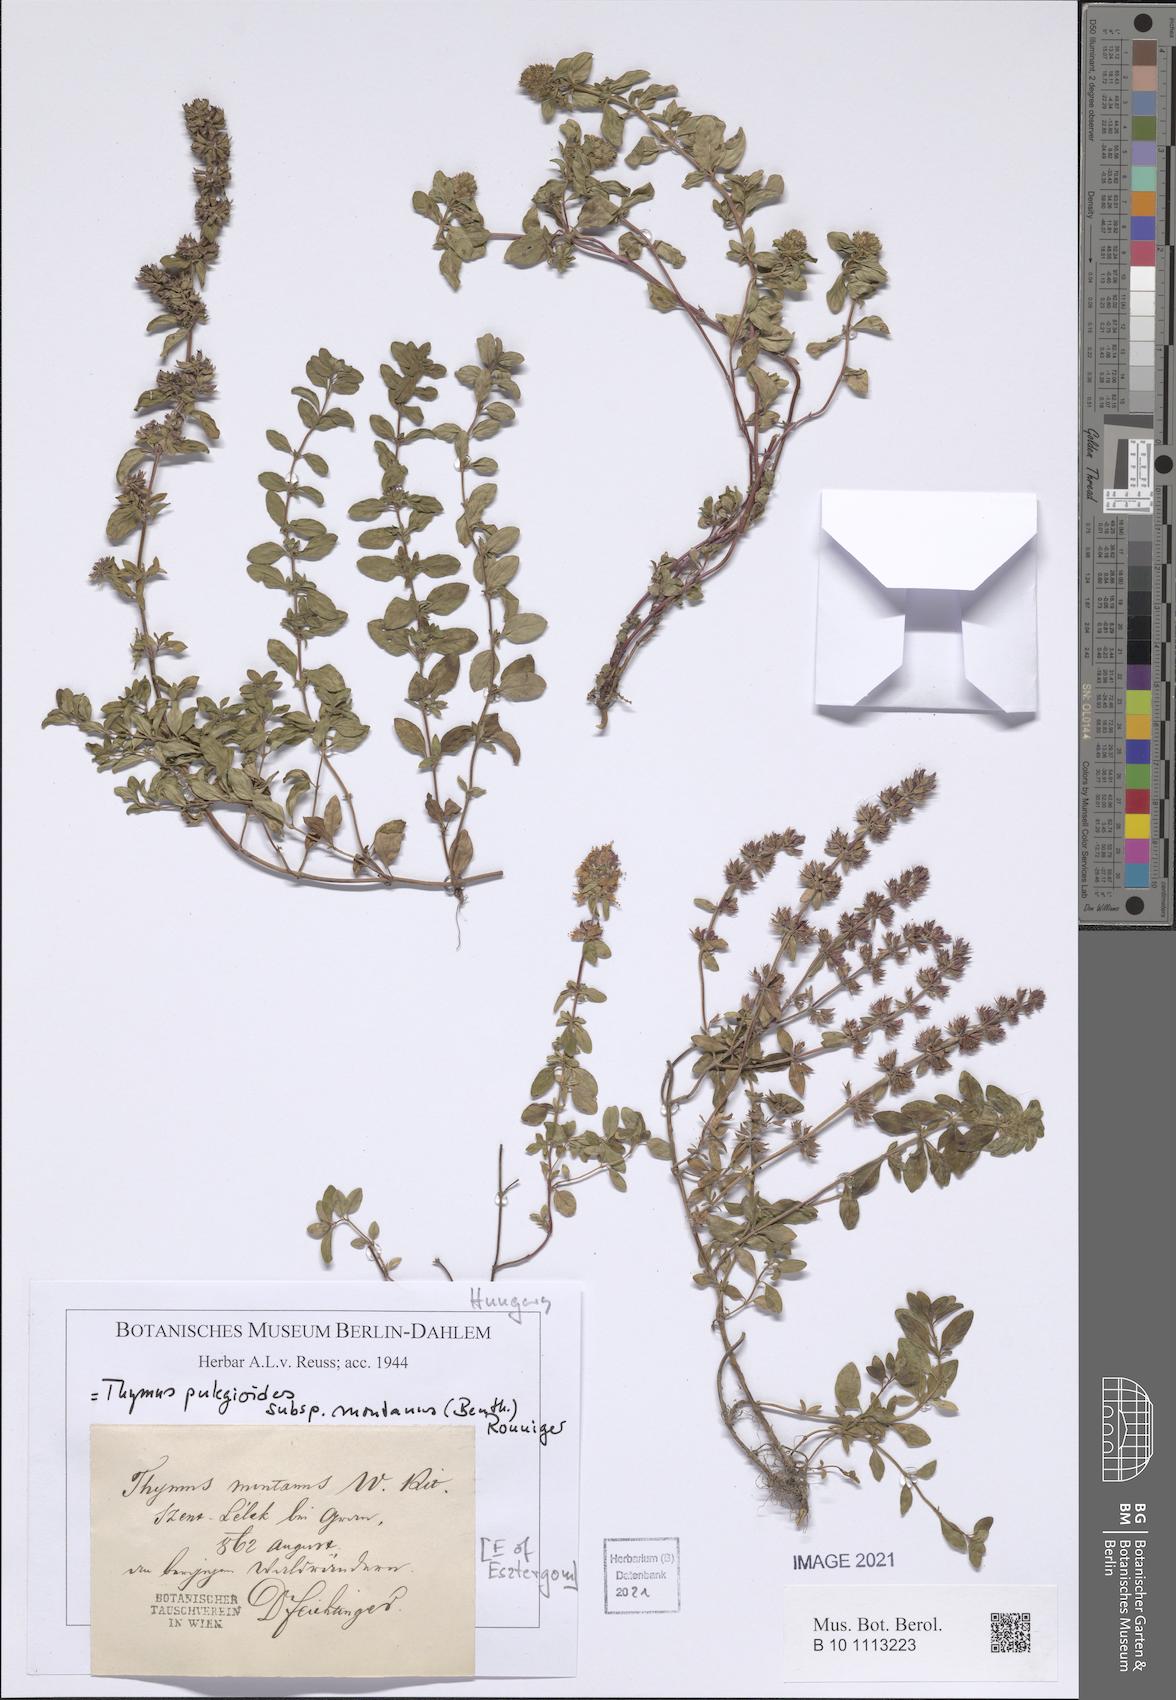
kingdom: Plantae
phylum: Tracheophyta
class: Magnoliopsida
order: Lamiales
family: Lamiaceae
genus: Thymus
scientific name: Thymus pulegioides
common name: Large thyme
